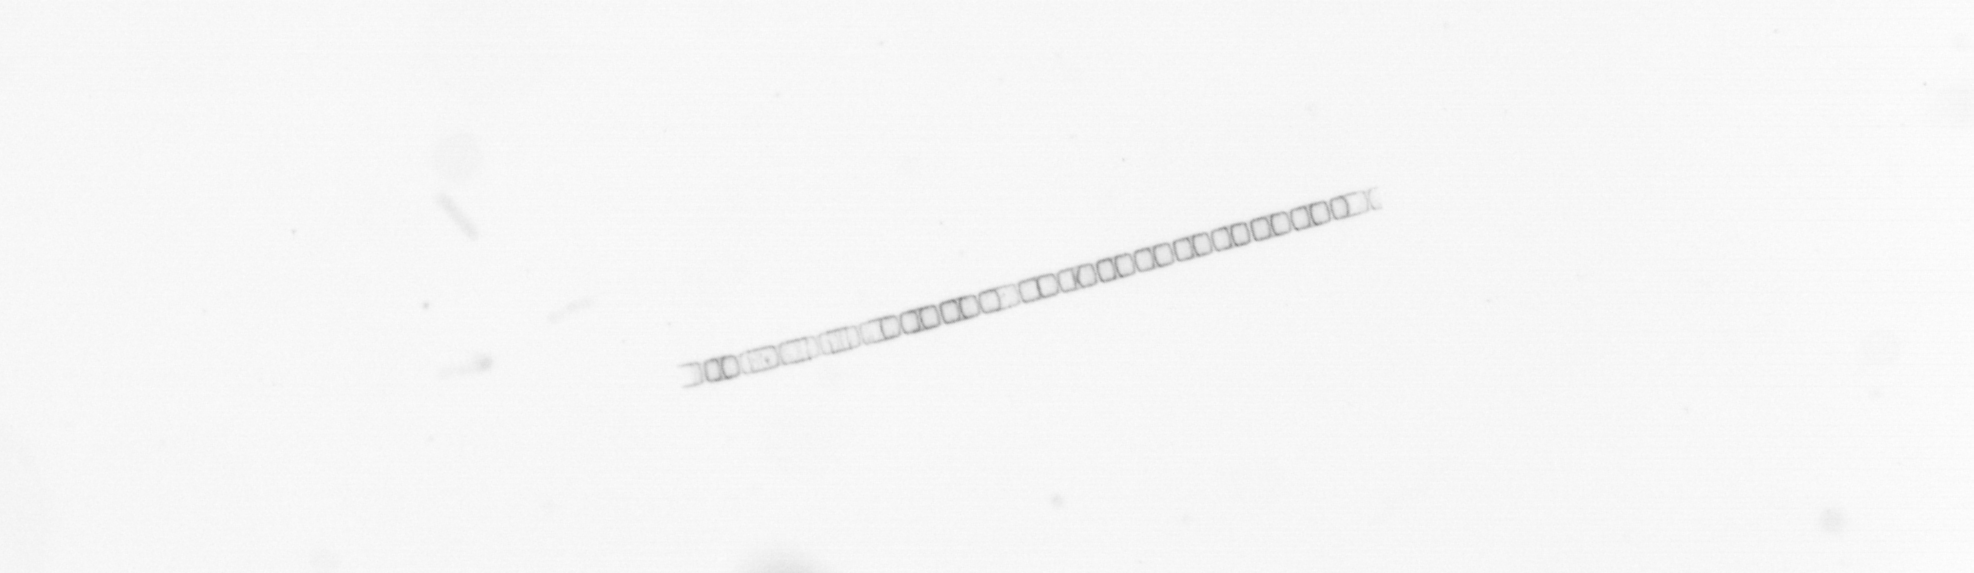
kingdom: Chromista
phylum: Ochrophyta
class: Bacillariophyceae
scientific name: Bacillariophyceae
